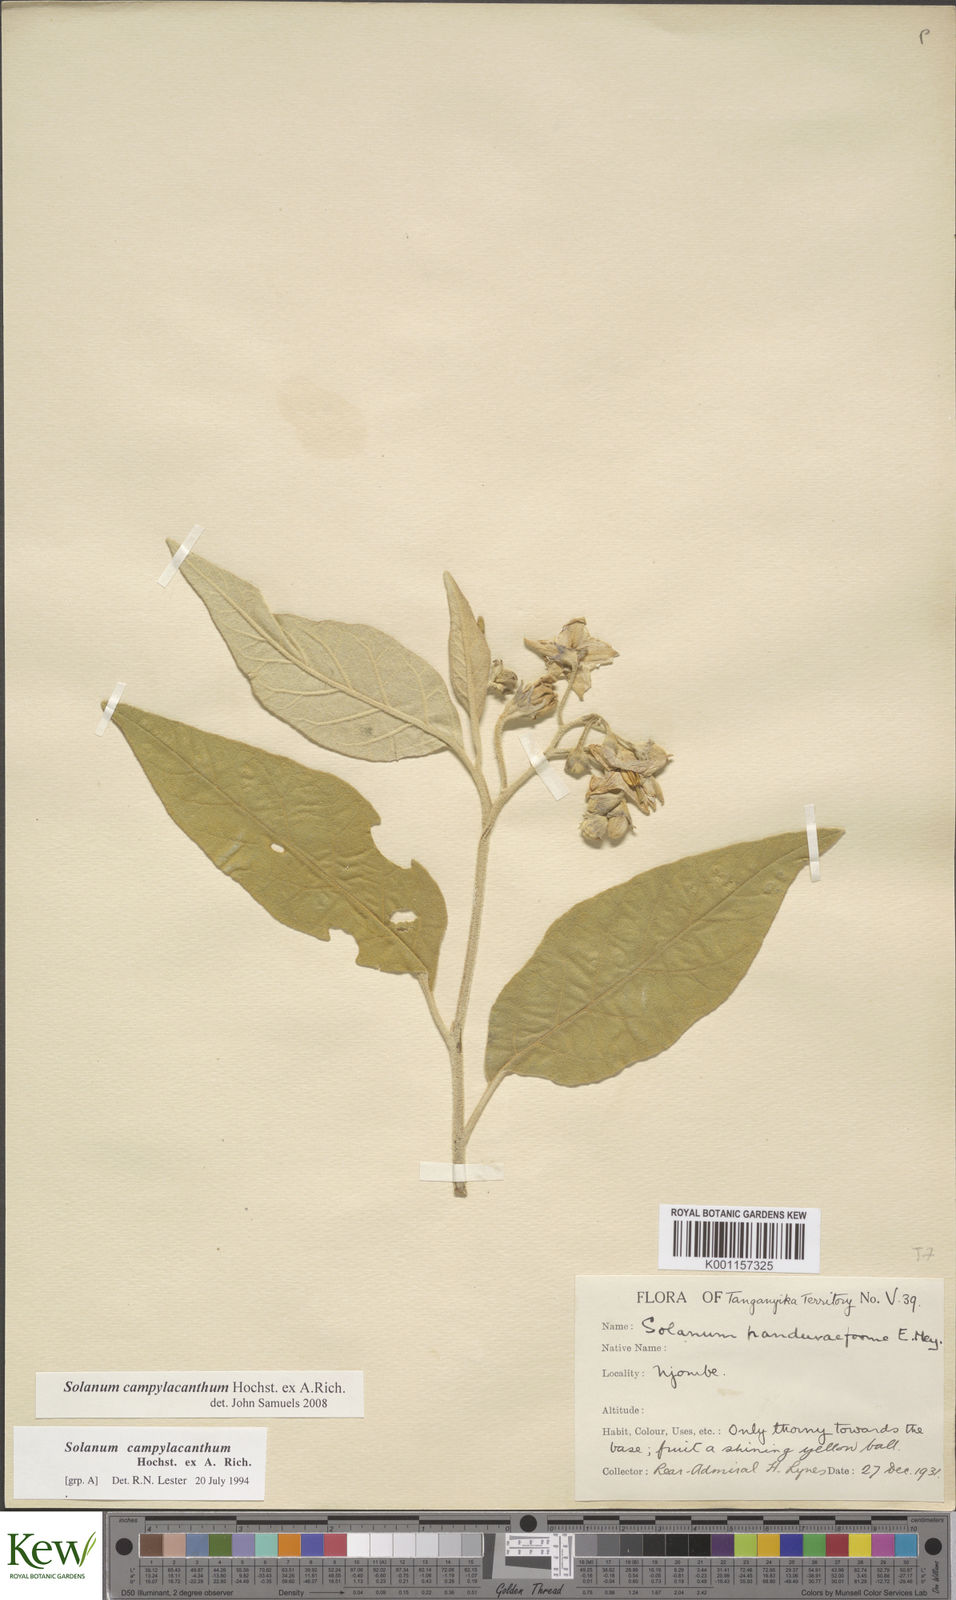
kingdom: Plantae
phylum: Tracheophyta
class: Magnoliopsida
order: Solanales
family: Solanaceae
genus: Solanum
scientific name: Solanum campylacanthum
